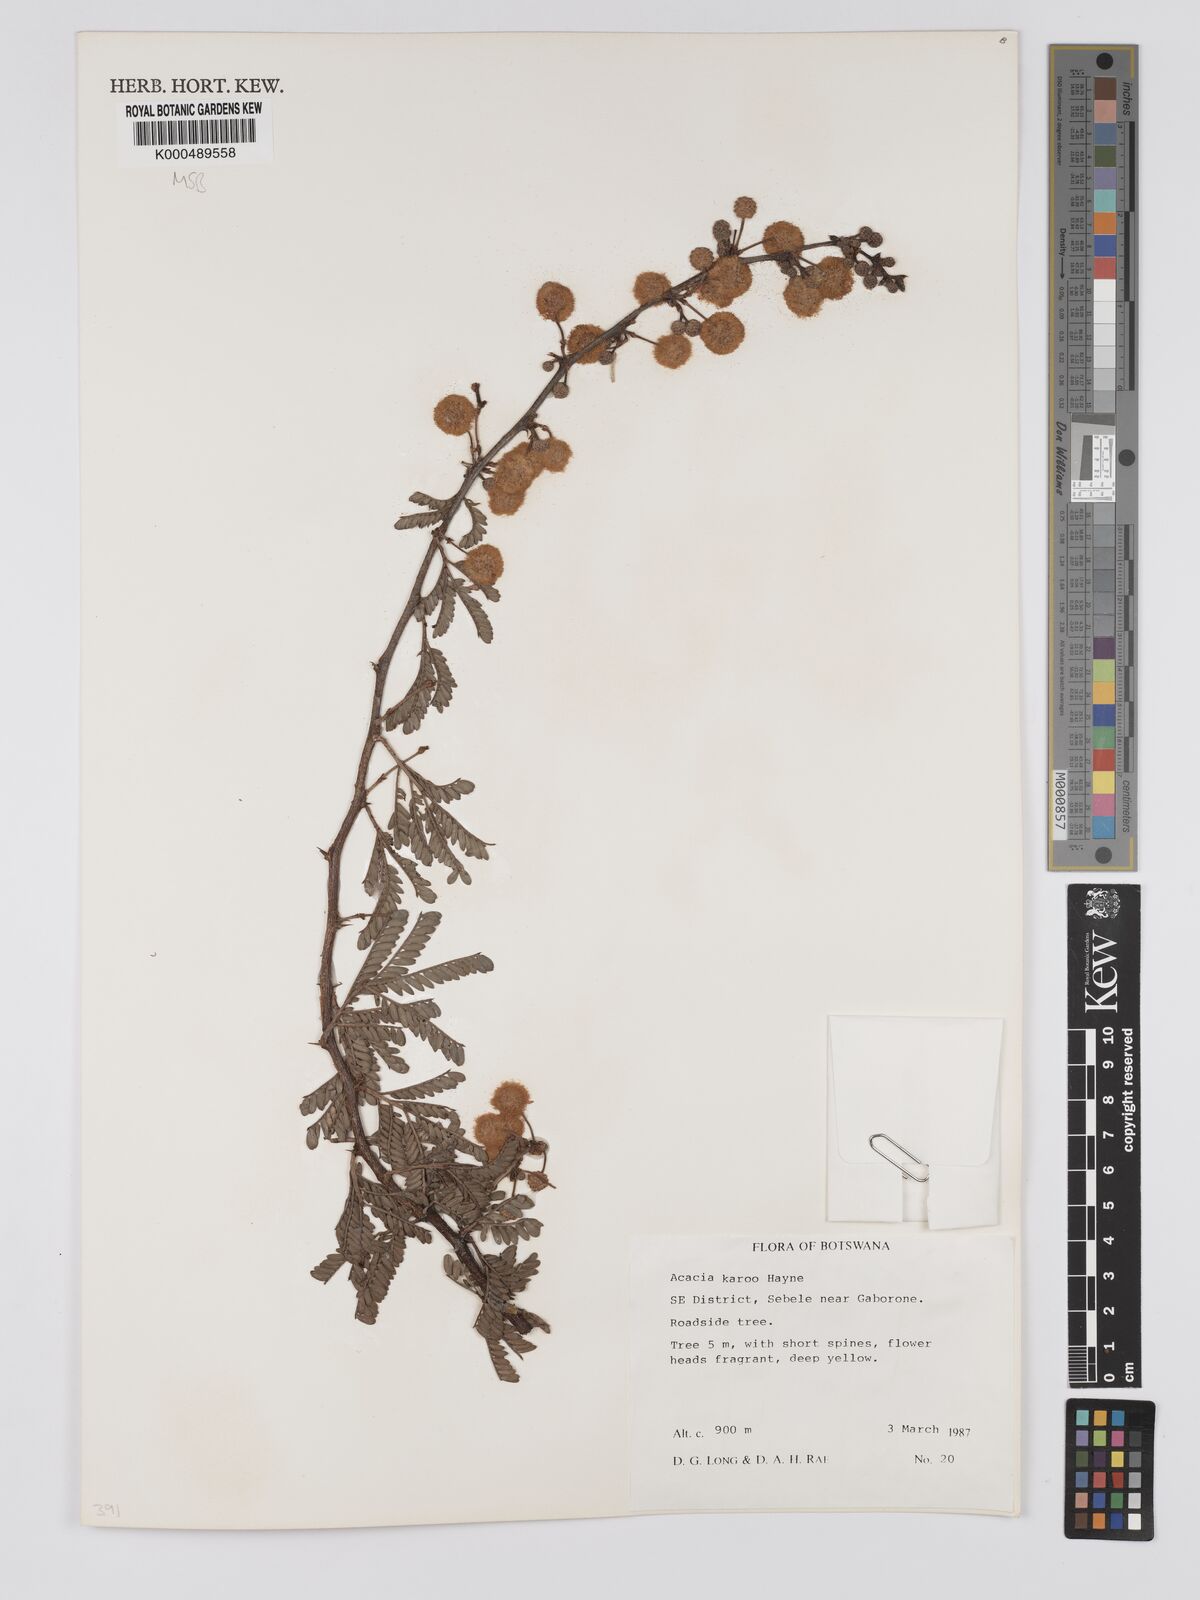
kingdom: Plantae
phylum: Tracheophyta
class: Magnoliopsida
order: Fabales
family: Fabaceae
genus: Vachellia
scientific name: Vachellia karroo
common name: Sweet thorn
